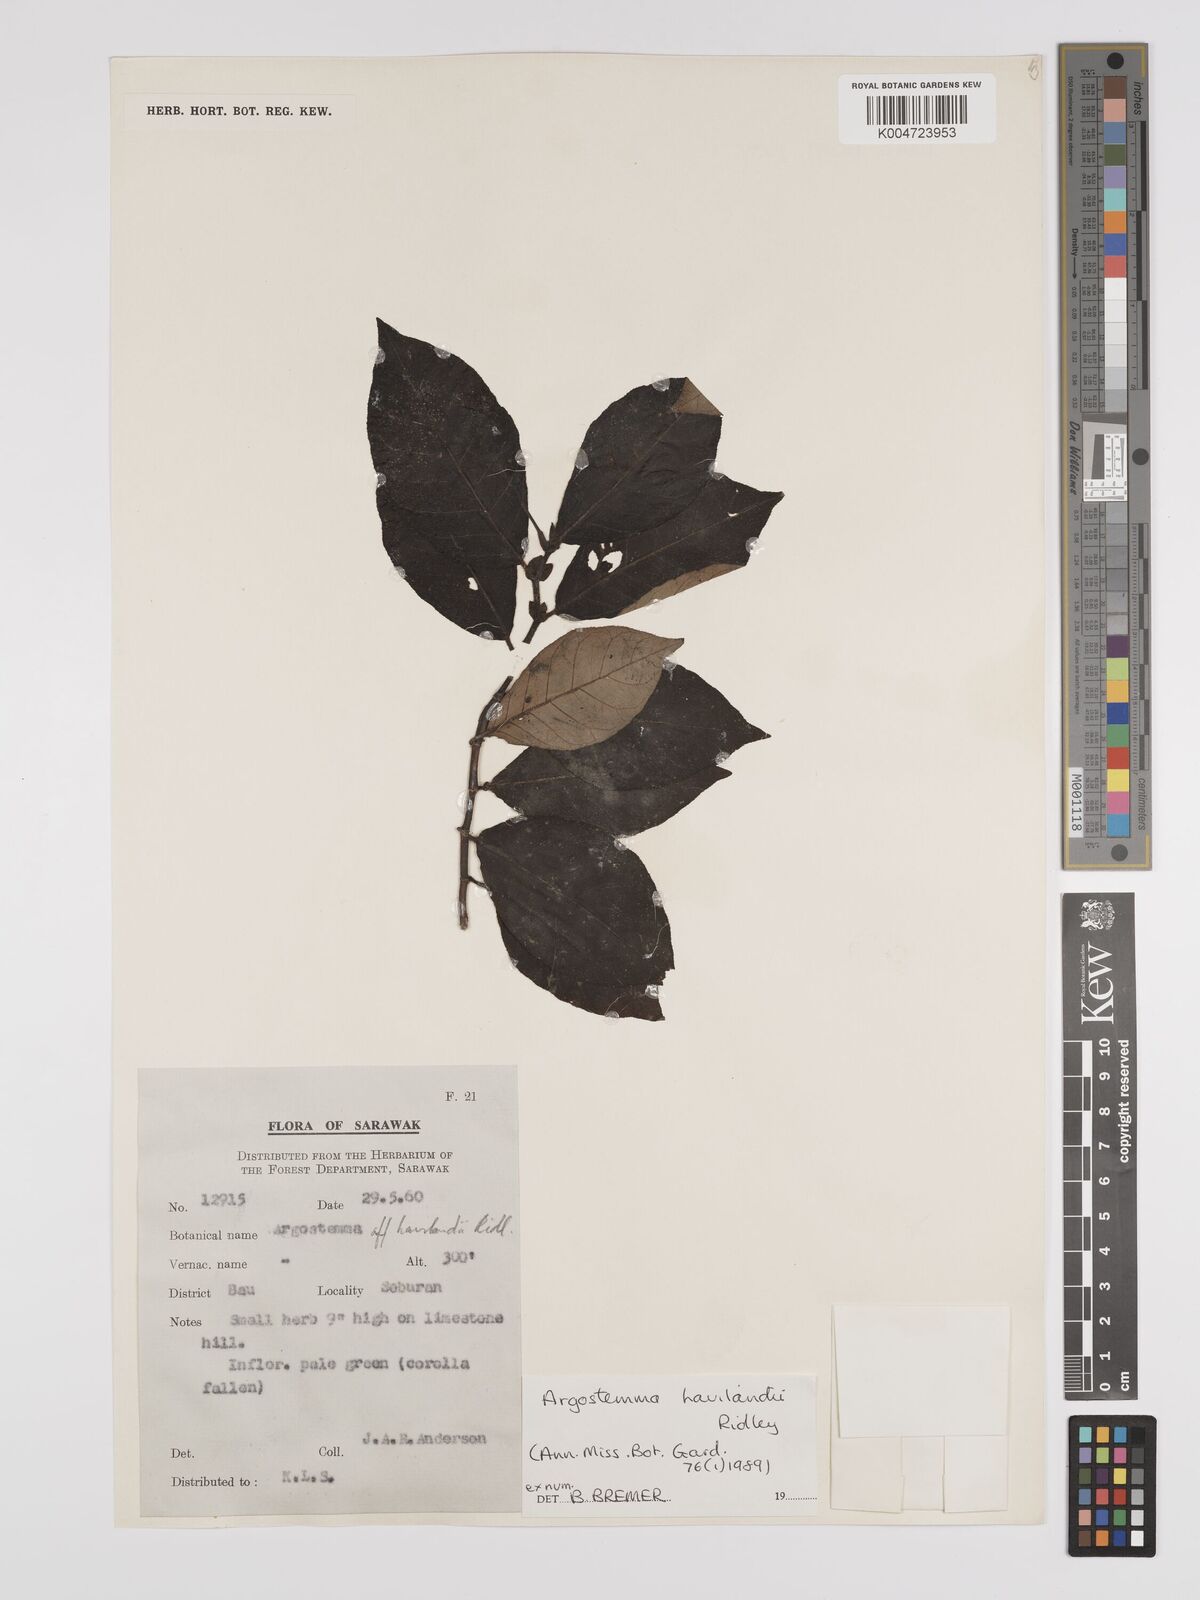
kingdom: Plantae
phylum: Tracheophyta
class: Magnoliopsida
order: Gentianales
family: Rubiaceae
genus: Argostemma
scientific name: Argostemma havilandii
